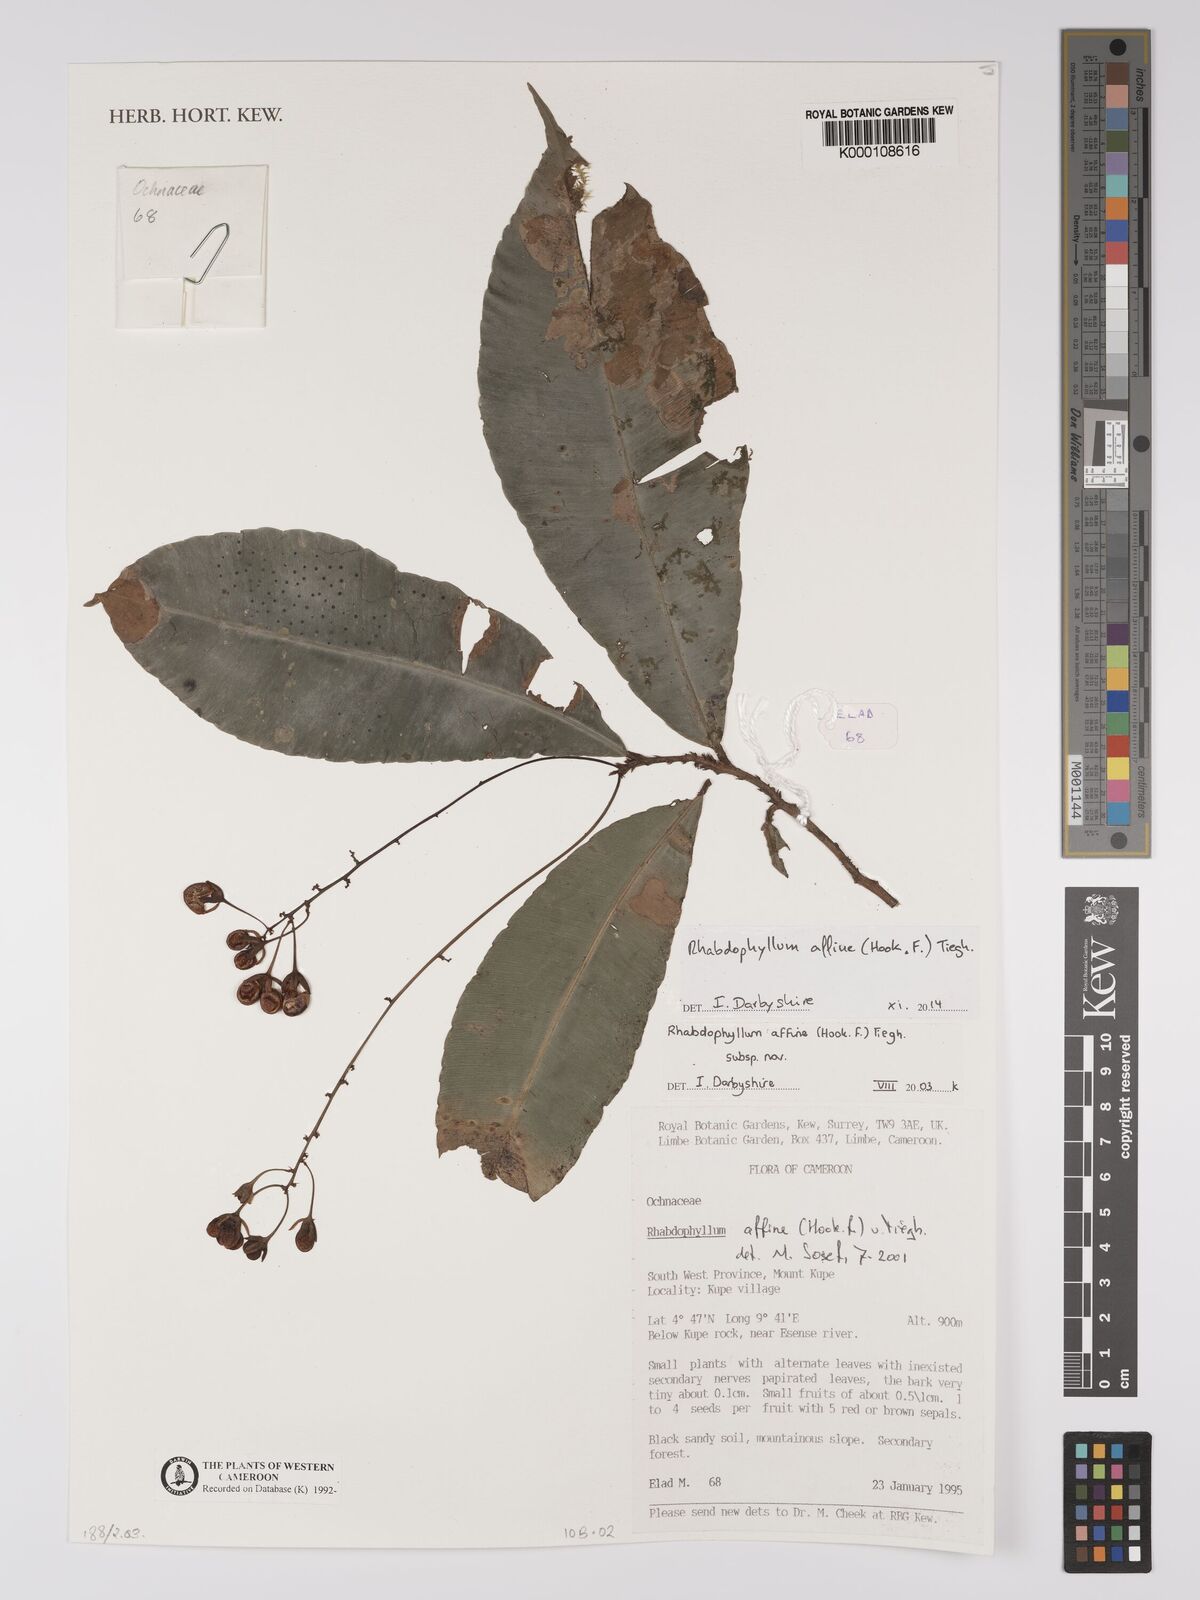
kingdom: Plantae
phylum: Tracheophyta
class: Magnoliopsida
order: Malpighiales
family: Ochnaceae
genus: Rhabdophyllum
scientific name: Rhabdophyllum affine
